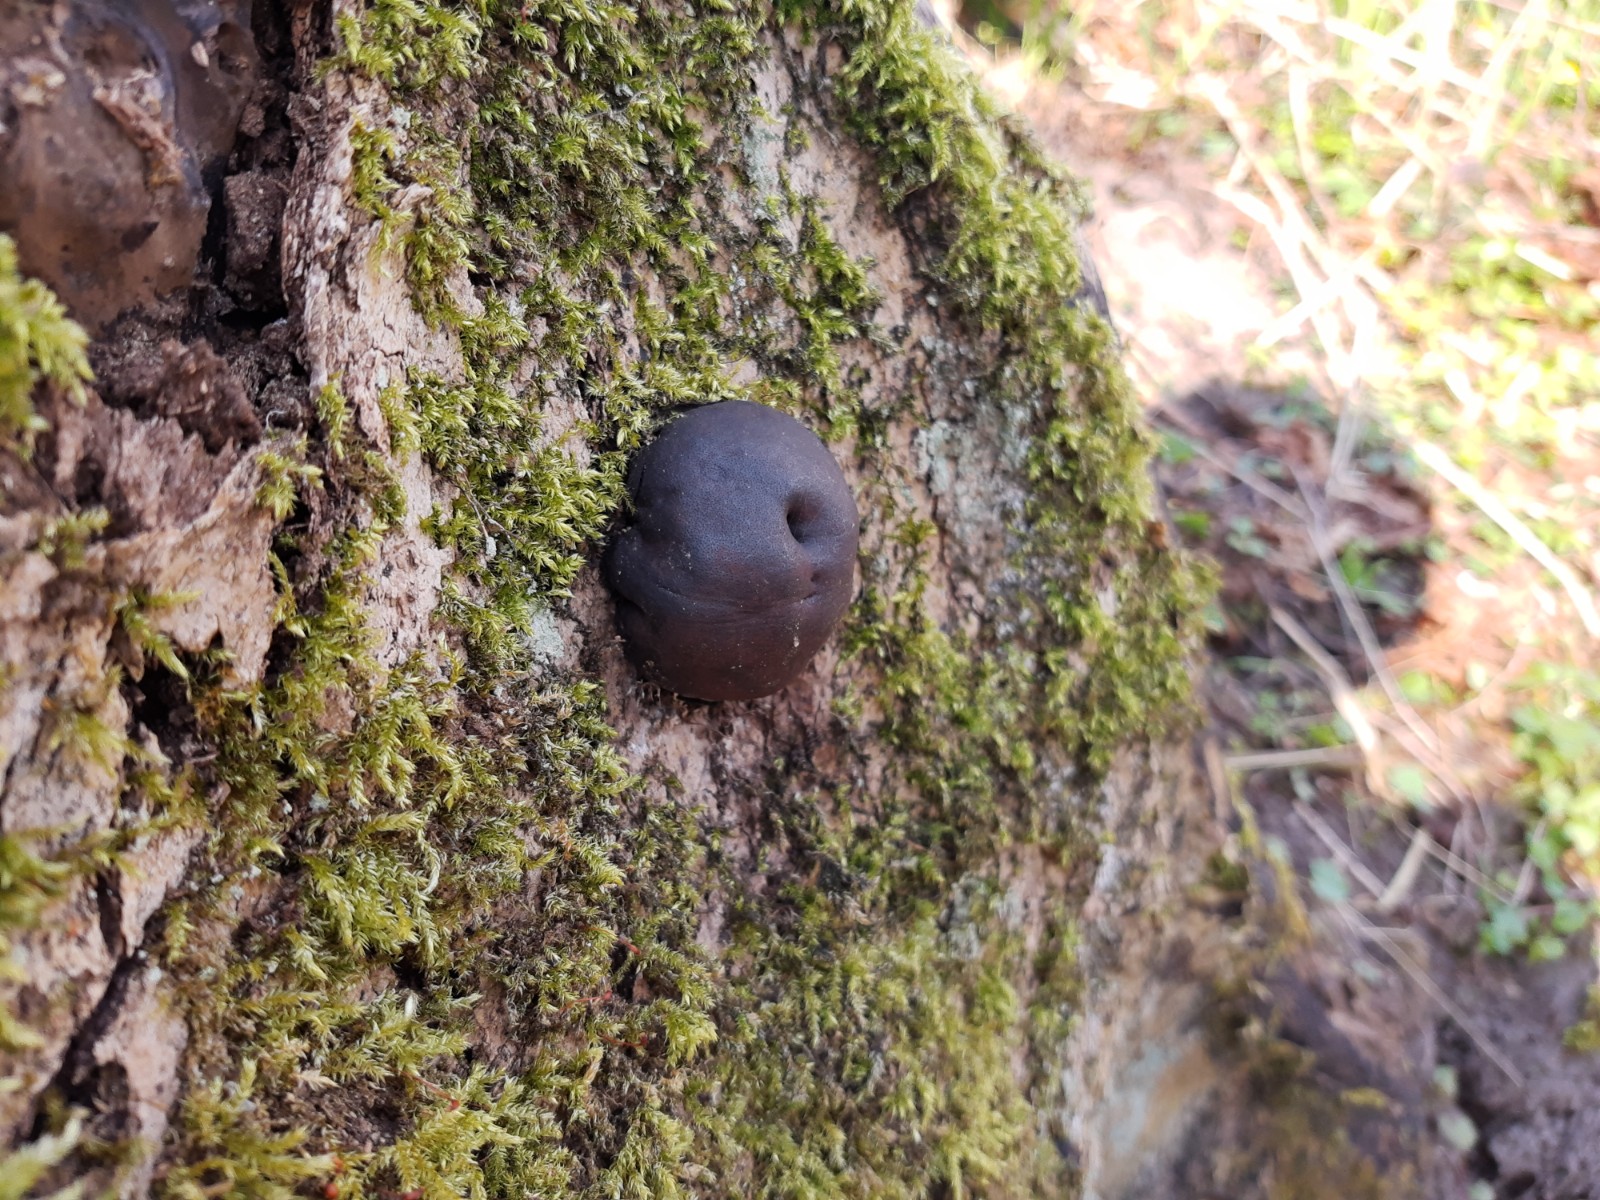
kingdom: Fungi
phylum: Ascomycota
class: Sordariomycetes
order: Xylariales
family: Hypoxylaceae
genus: Daldinia
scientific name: Daldinia concentrica
